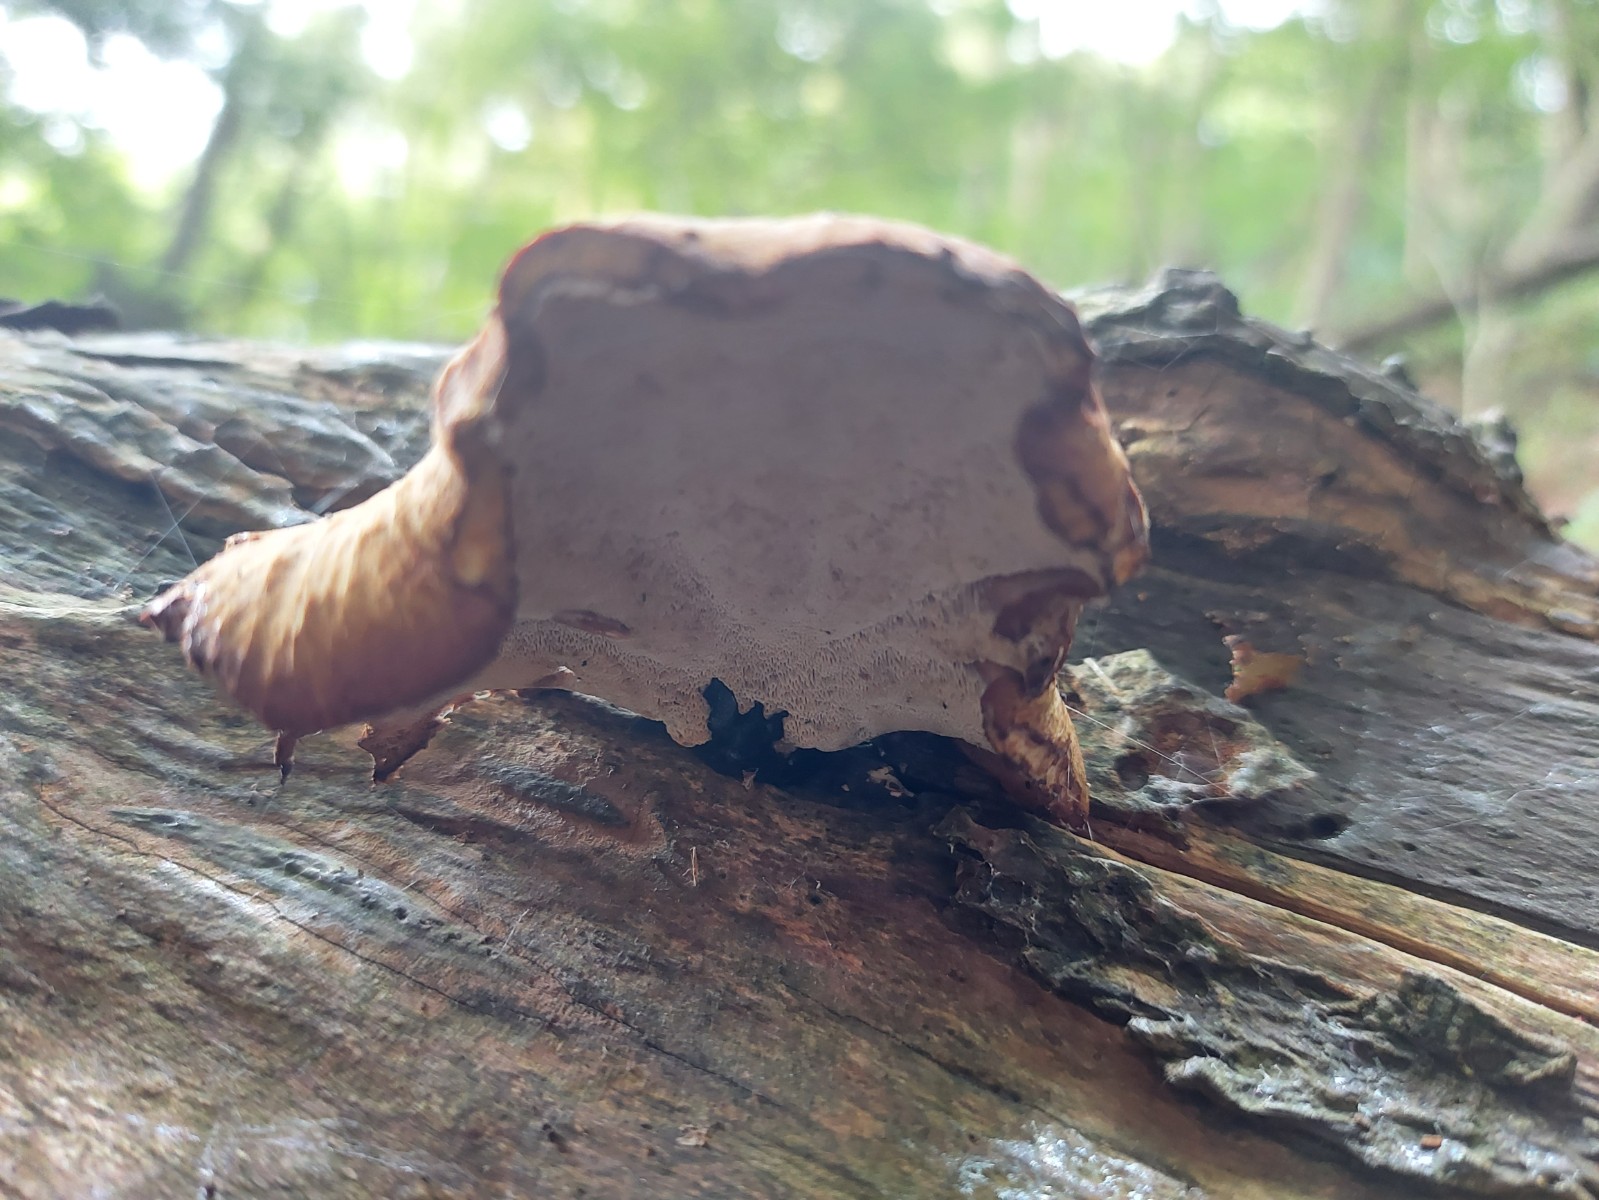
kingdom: Fungi
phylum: Basidiomycota
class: Agaricomycetes
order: Polyporales
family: Polyporaceae
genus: Cerioporus
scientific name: Cerioporus varius
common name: foranderlig stilkporesvamp
